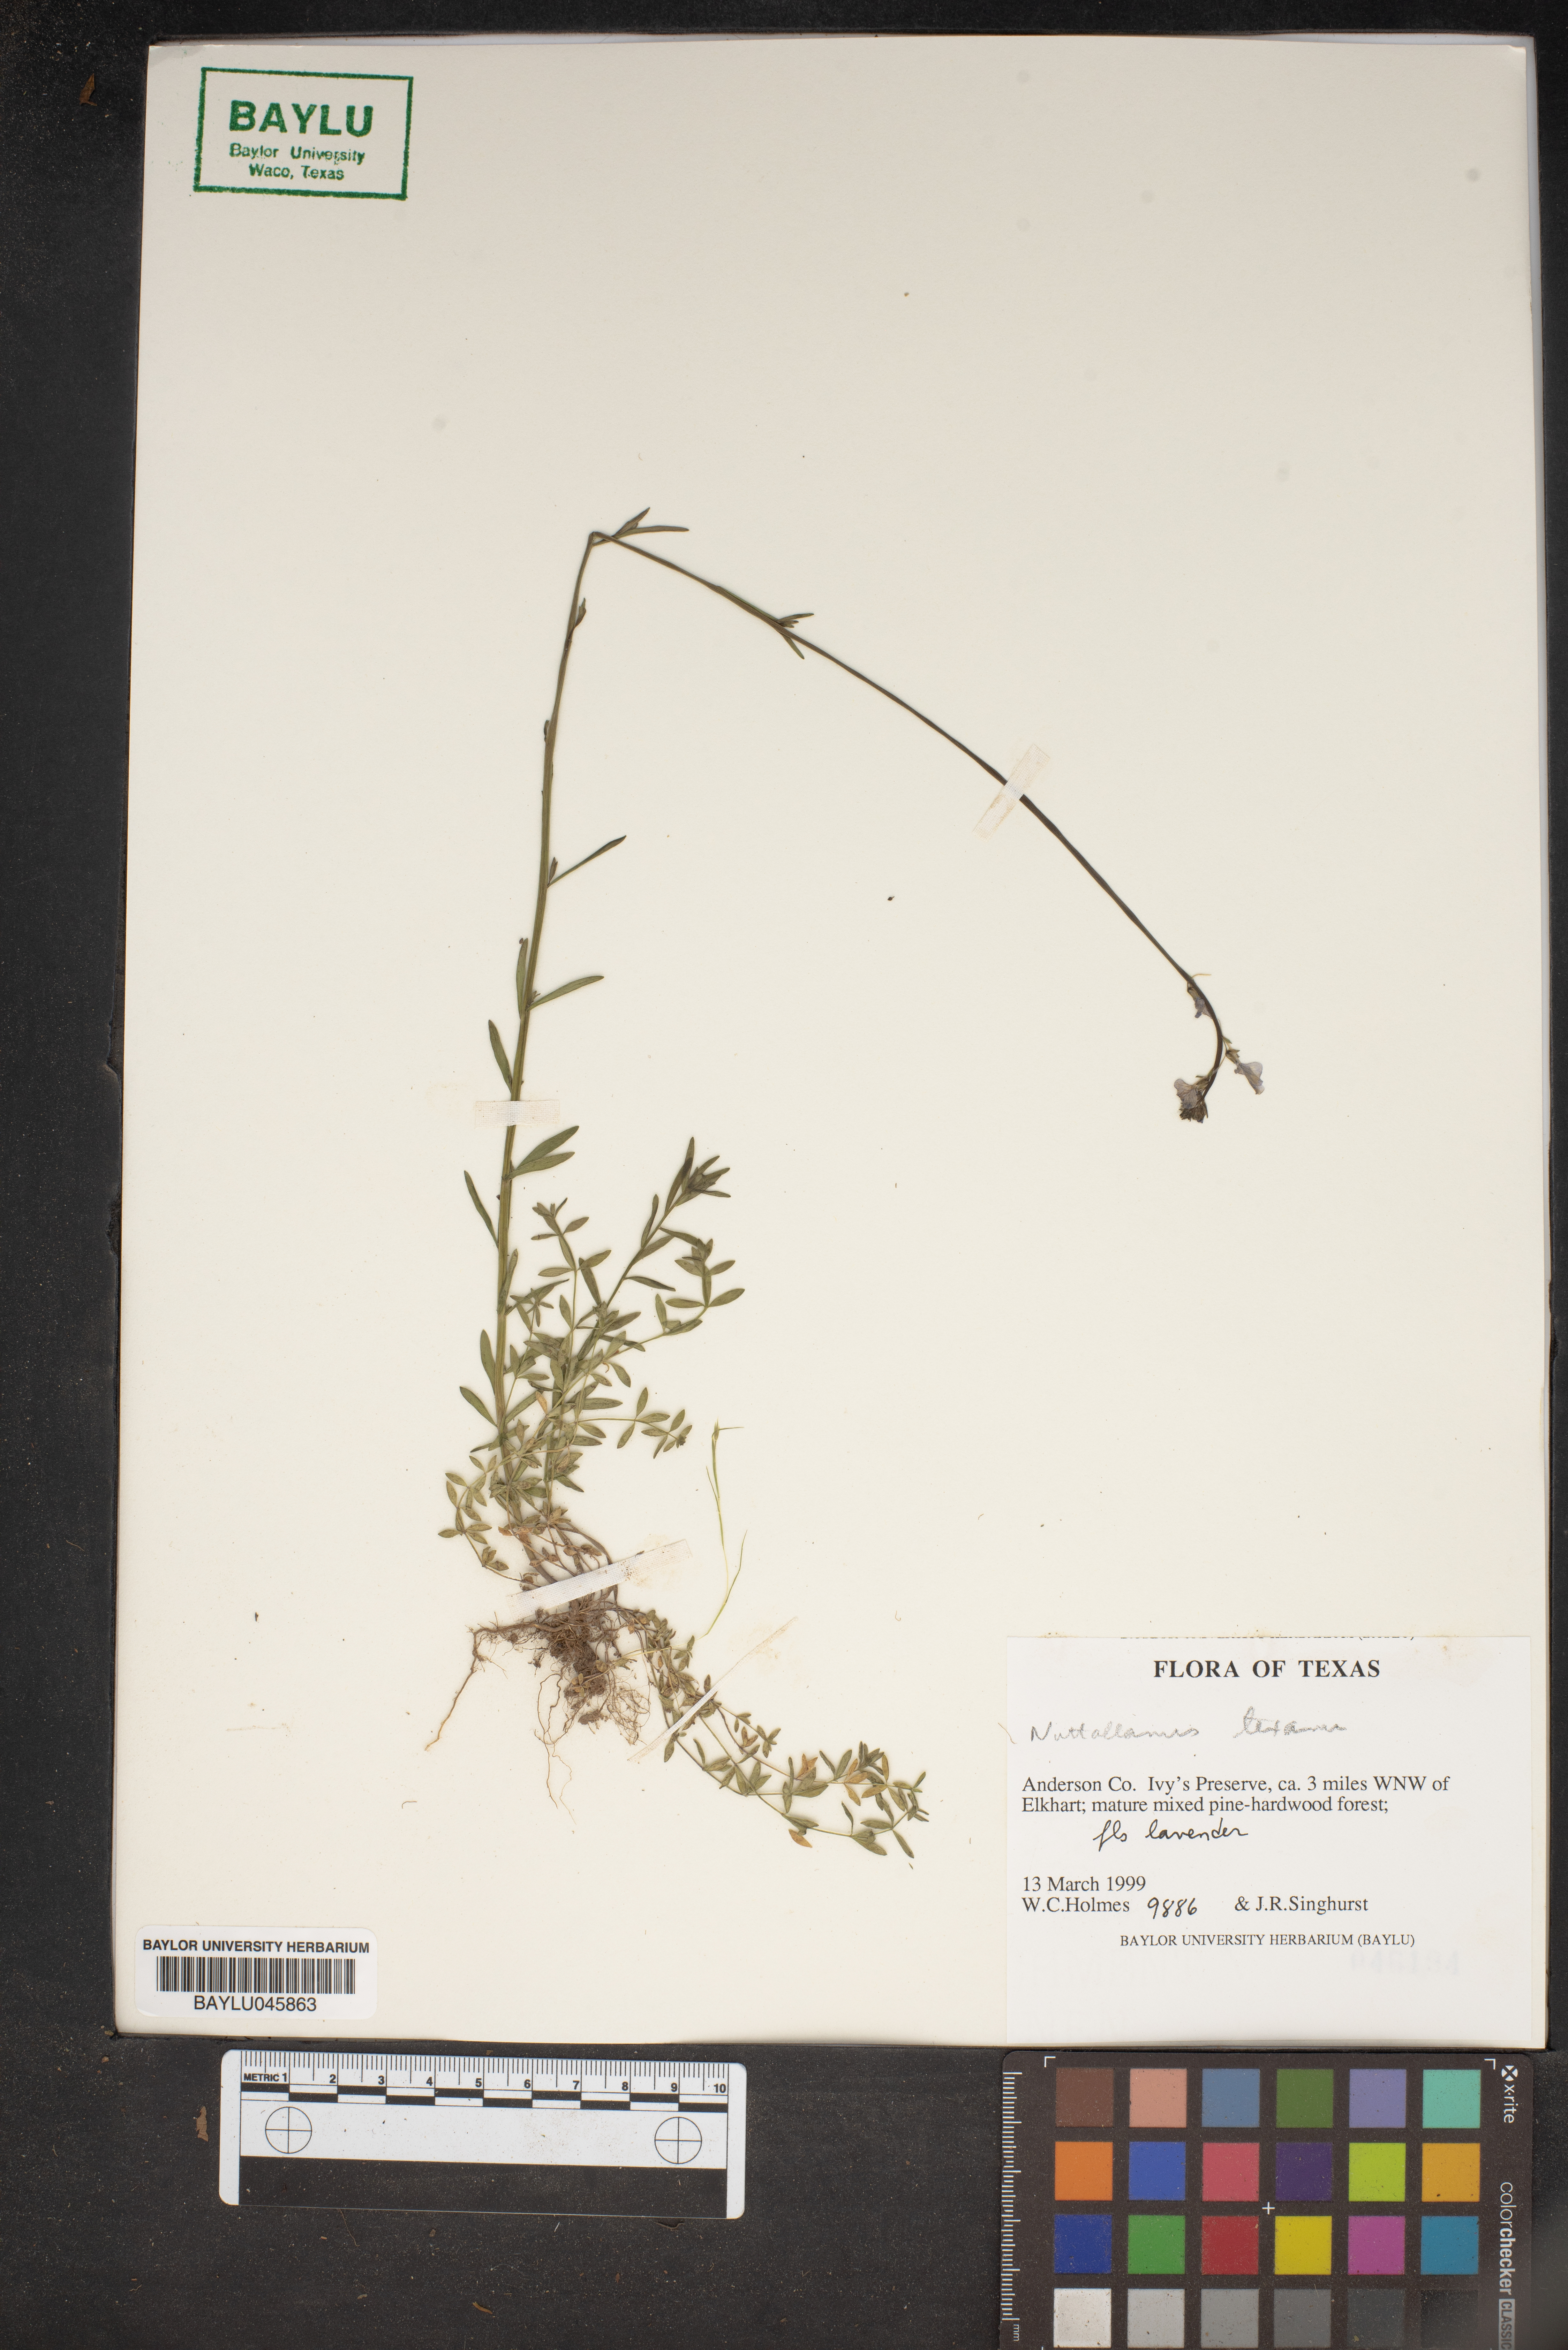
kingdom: Plantae
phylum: Tracheophyta
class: Magnoliopsida
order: Lamiales
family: Plantaginaceae
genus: Nuttallanthus
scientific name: Nuttallanthus texanus
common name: Texas toadflax
